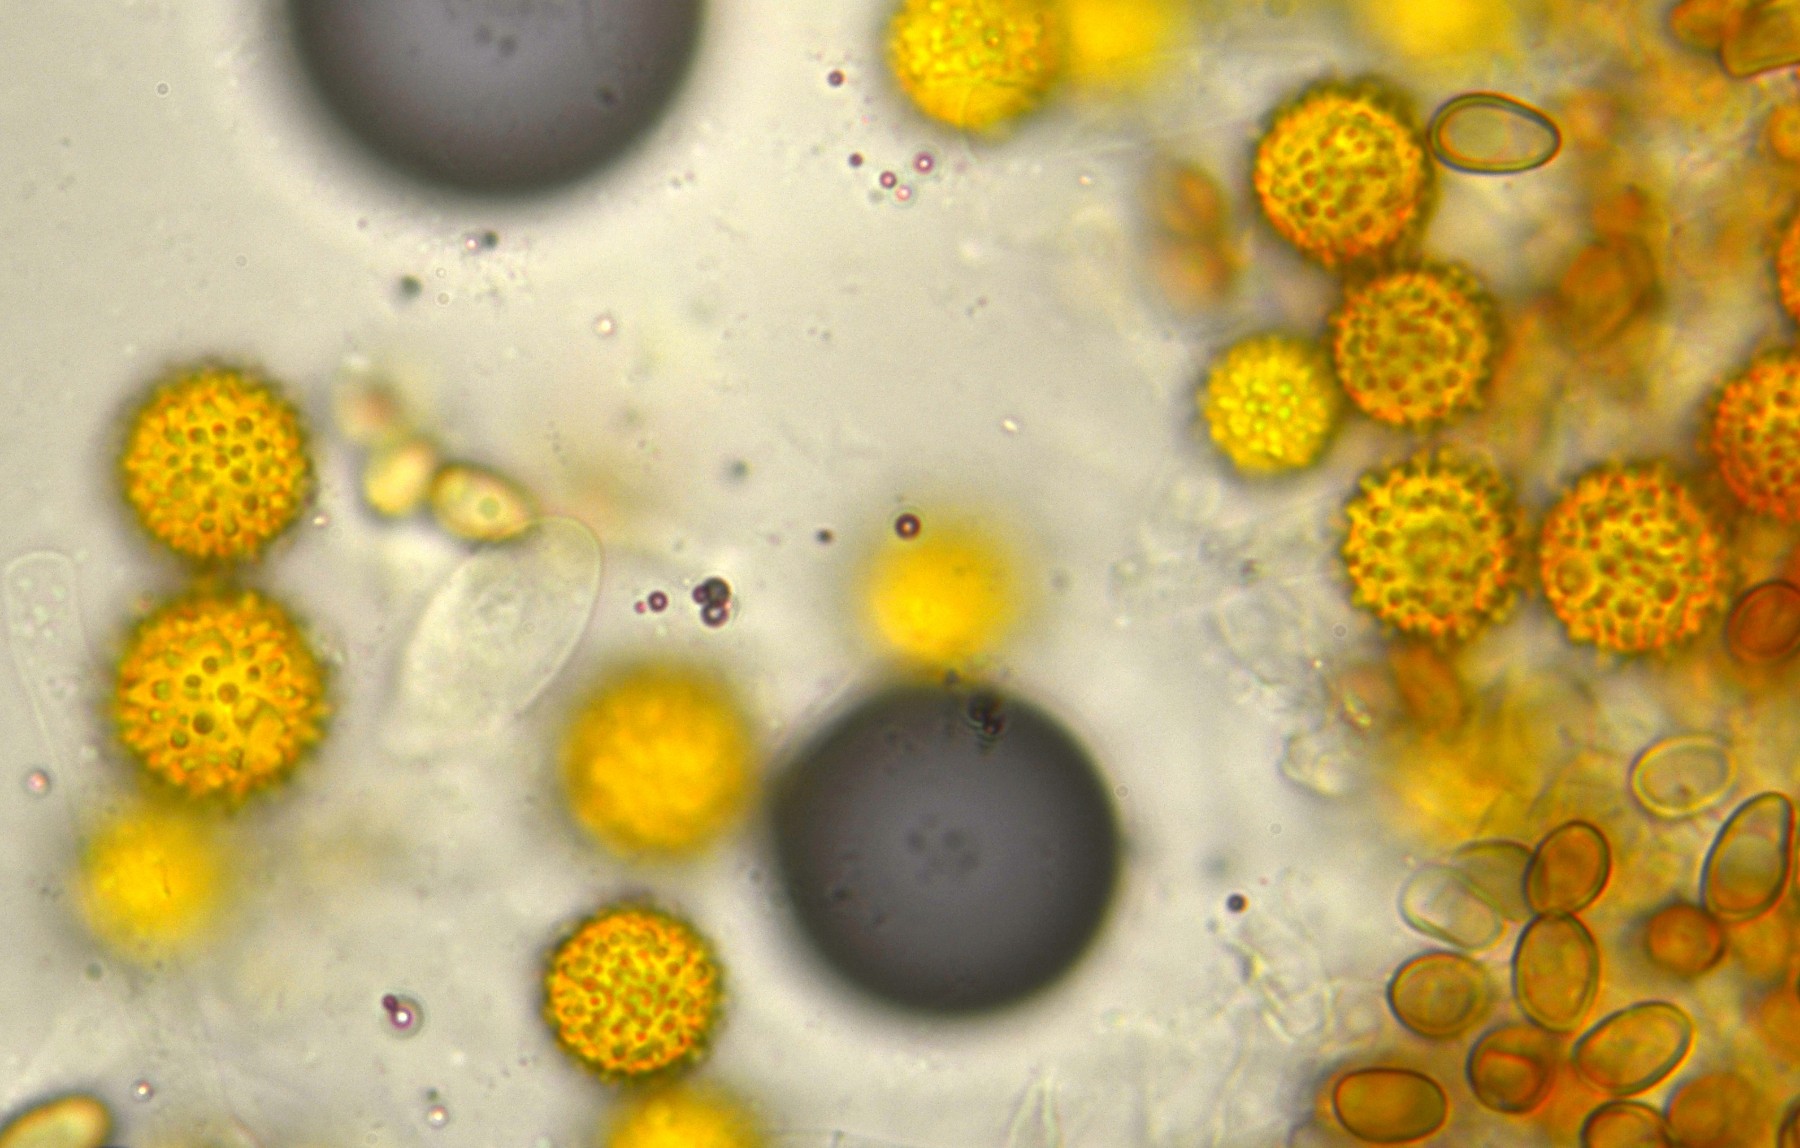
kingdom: Fungi
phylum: Ascomycota
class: Sordariomycetes
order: Hypocreales
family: Hypocreaceae
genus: Hypomyces
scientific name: Hypomyces microspermus
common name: dværgrørhat-snylteskorpe
